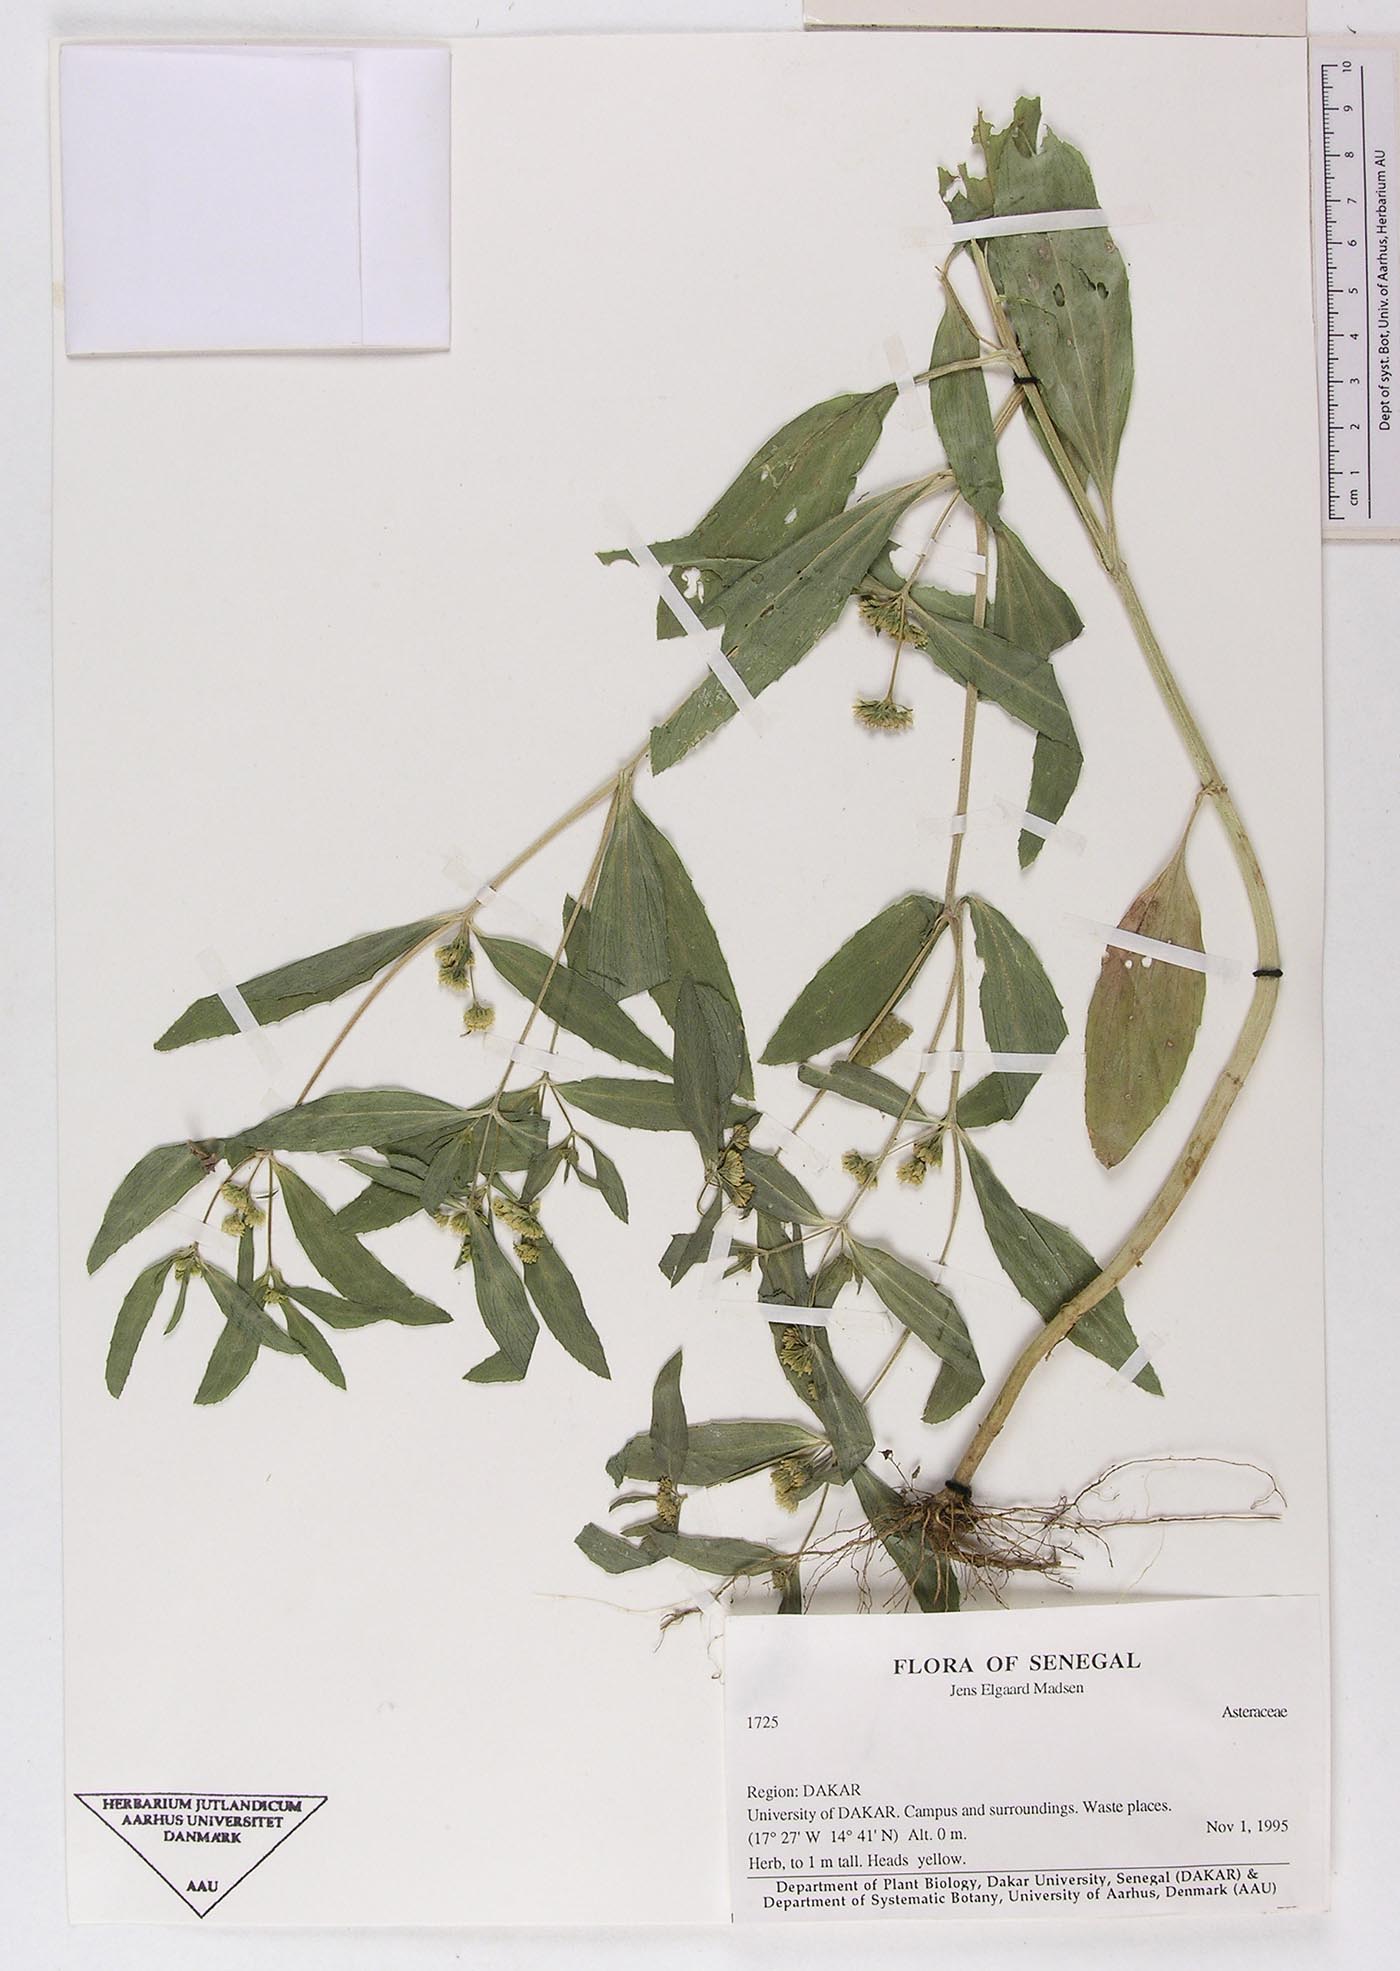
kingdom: Plantae
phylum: Tracheophyta
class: Magnoliopsida
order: Asterales
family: Asteraceae
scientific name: Asteraceae
